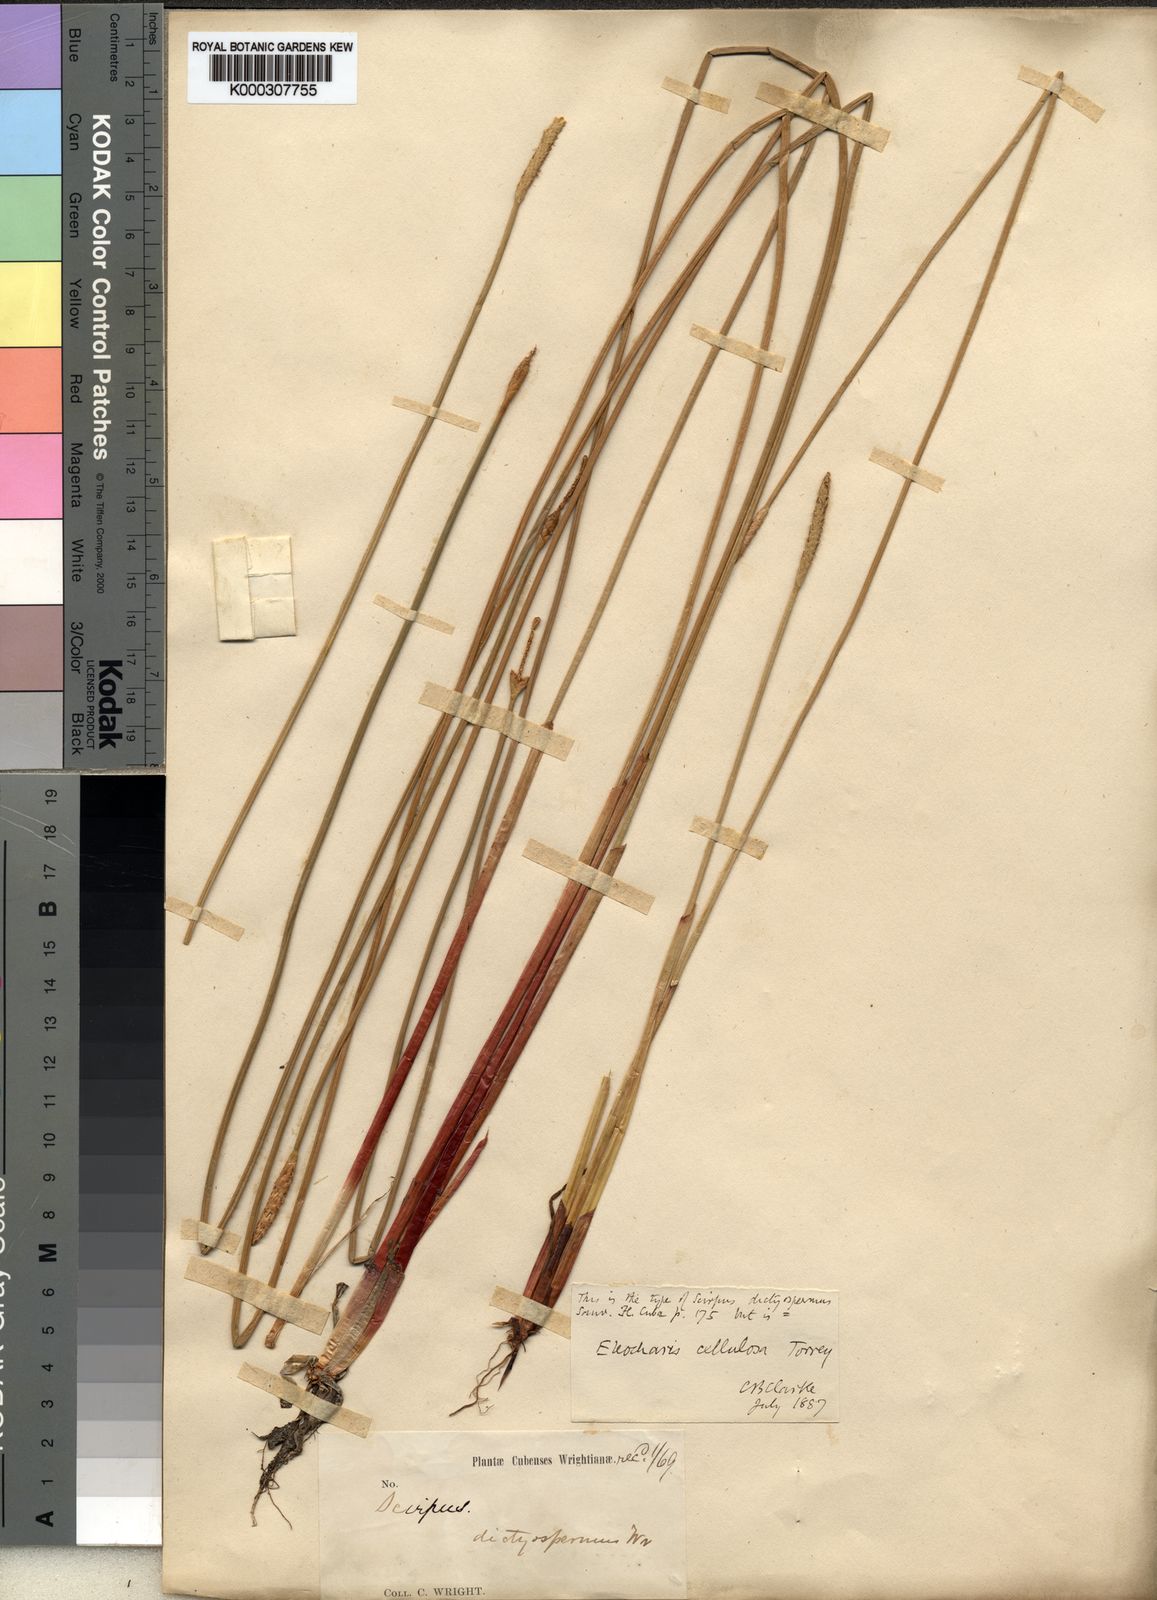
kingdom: Plantae
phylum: Tracheophyta
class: Liliopsida
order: Poales
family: Cyperaceae
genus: Eleocharis
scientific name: Eleocharis cellulosa
